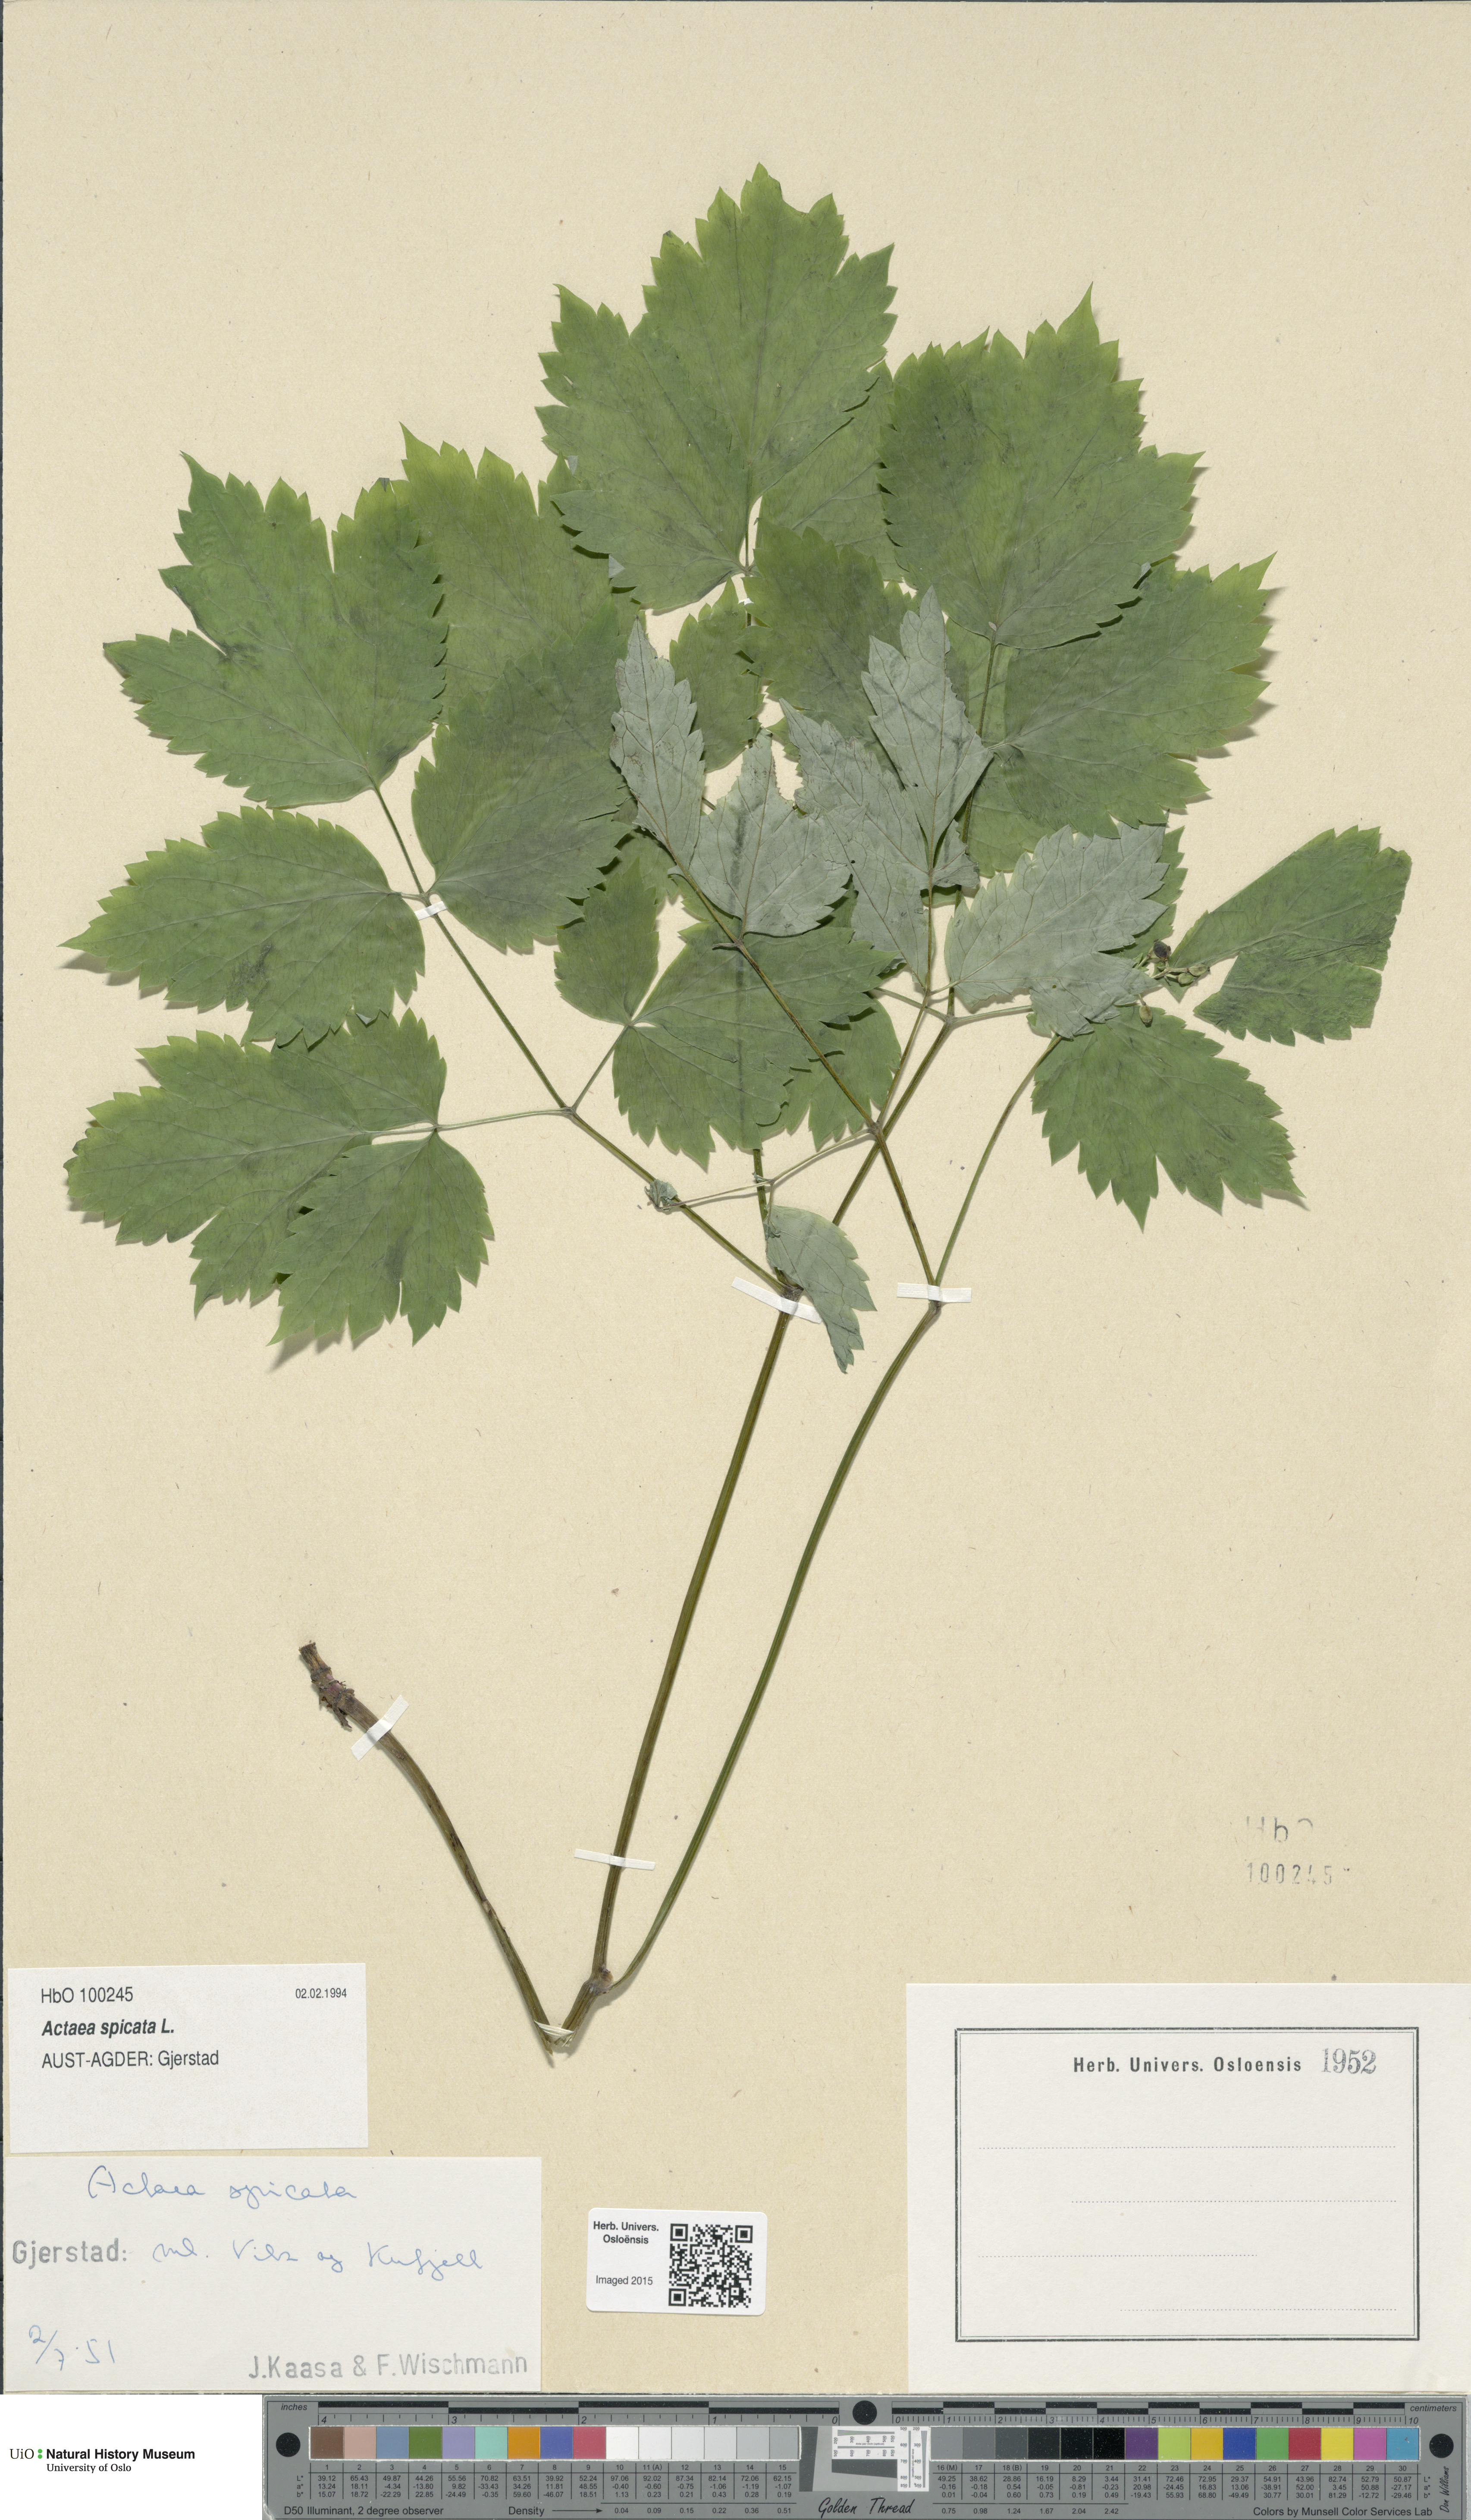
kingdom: Plantae
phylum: Tracheophyta
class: Magnoliopsida
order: Ranunculales
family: Ranunculaceae
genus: Actaea
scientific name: Actaea spicata
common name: Baneberry
